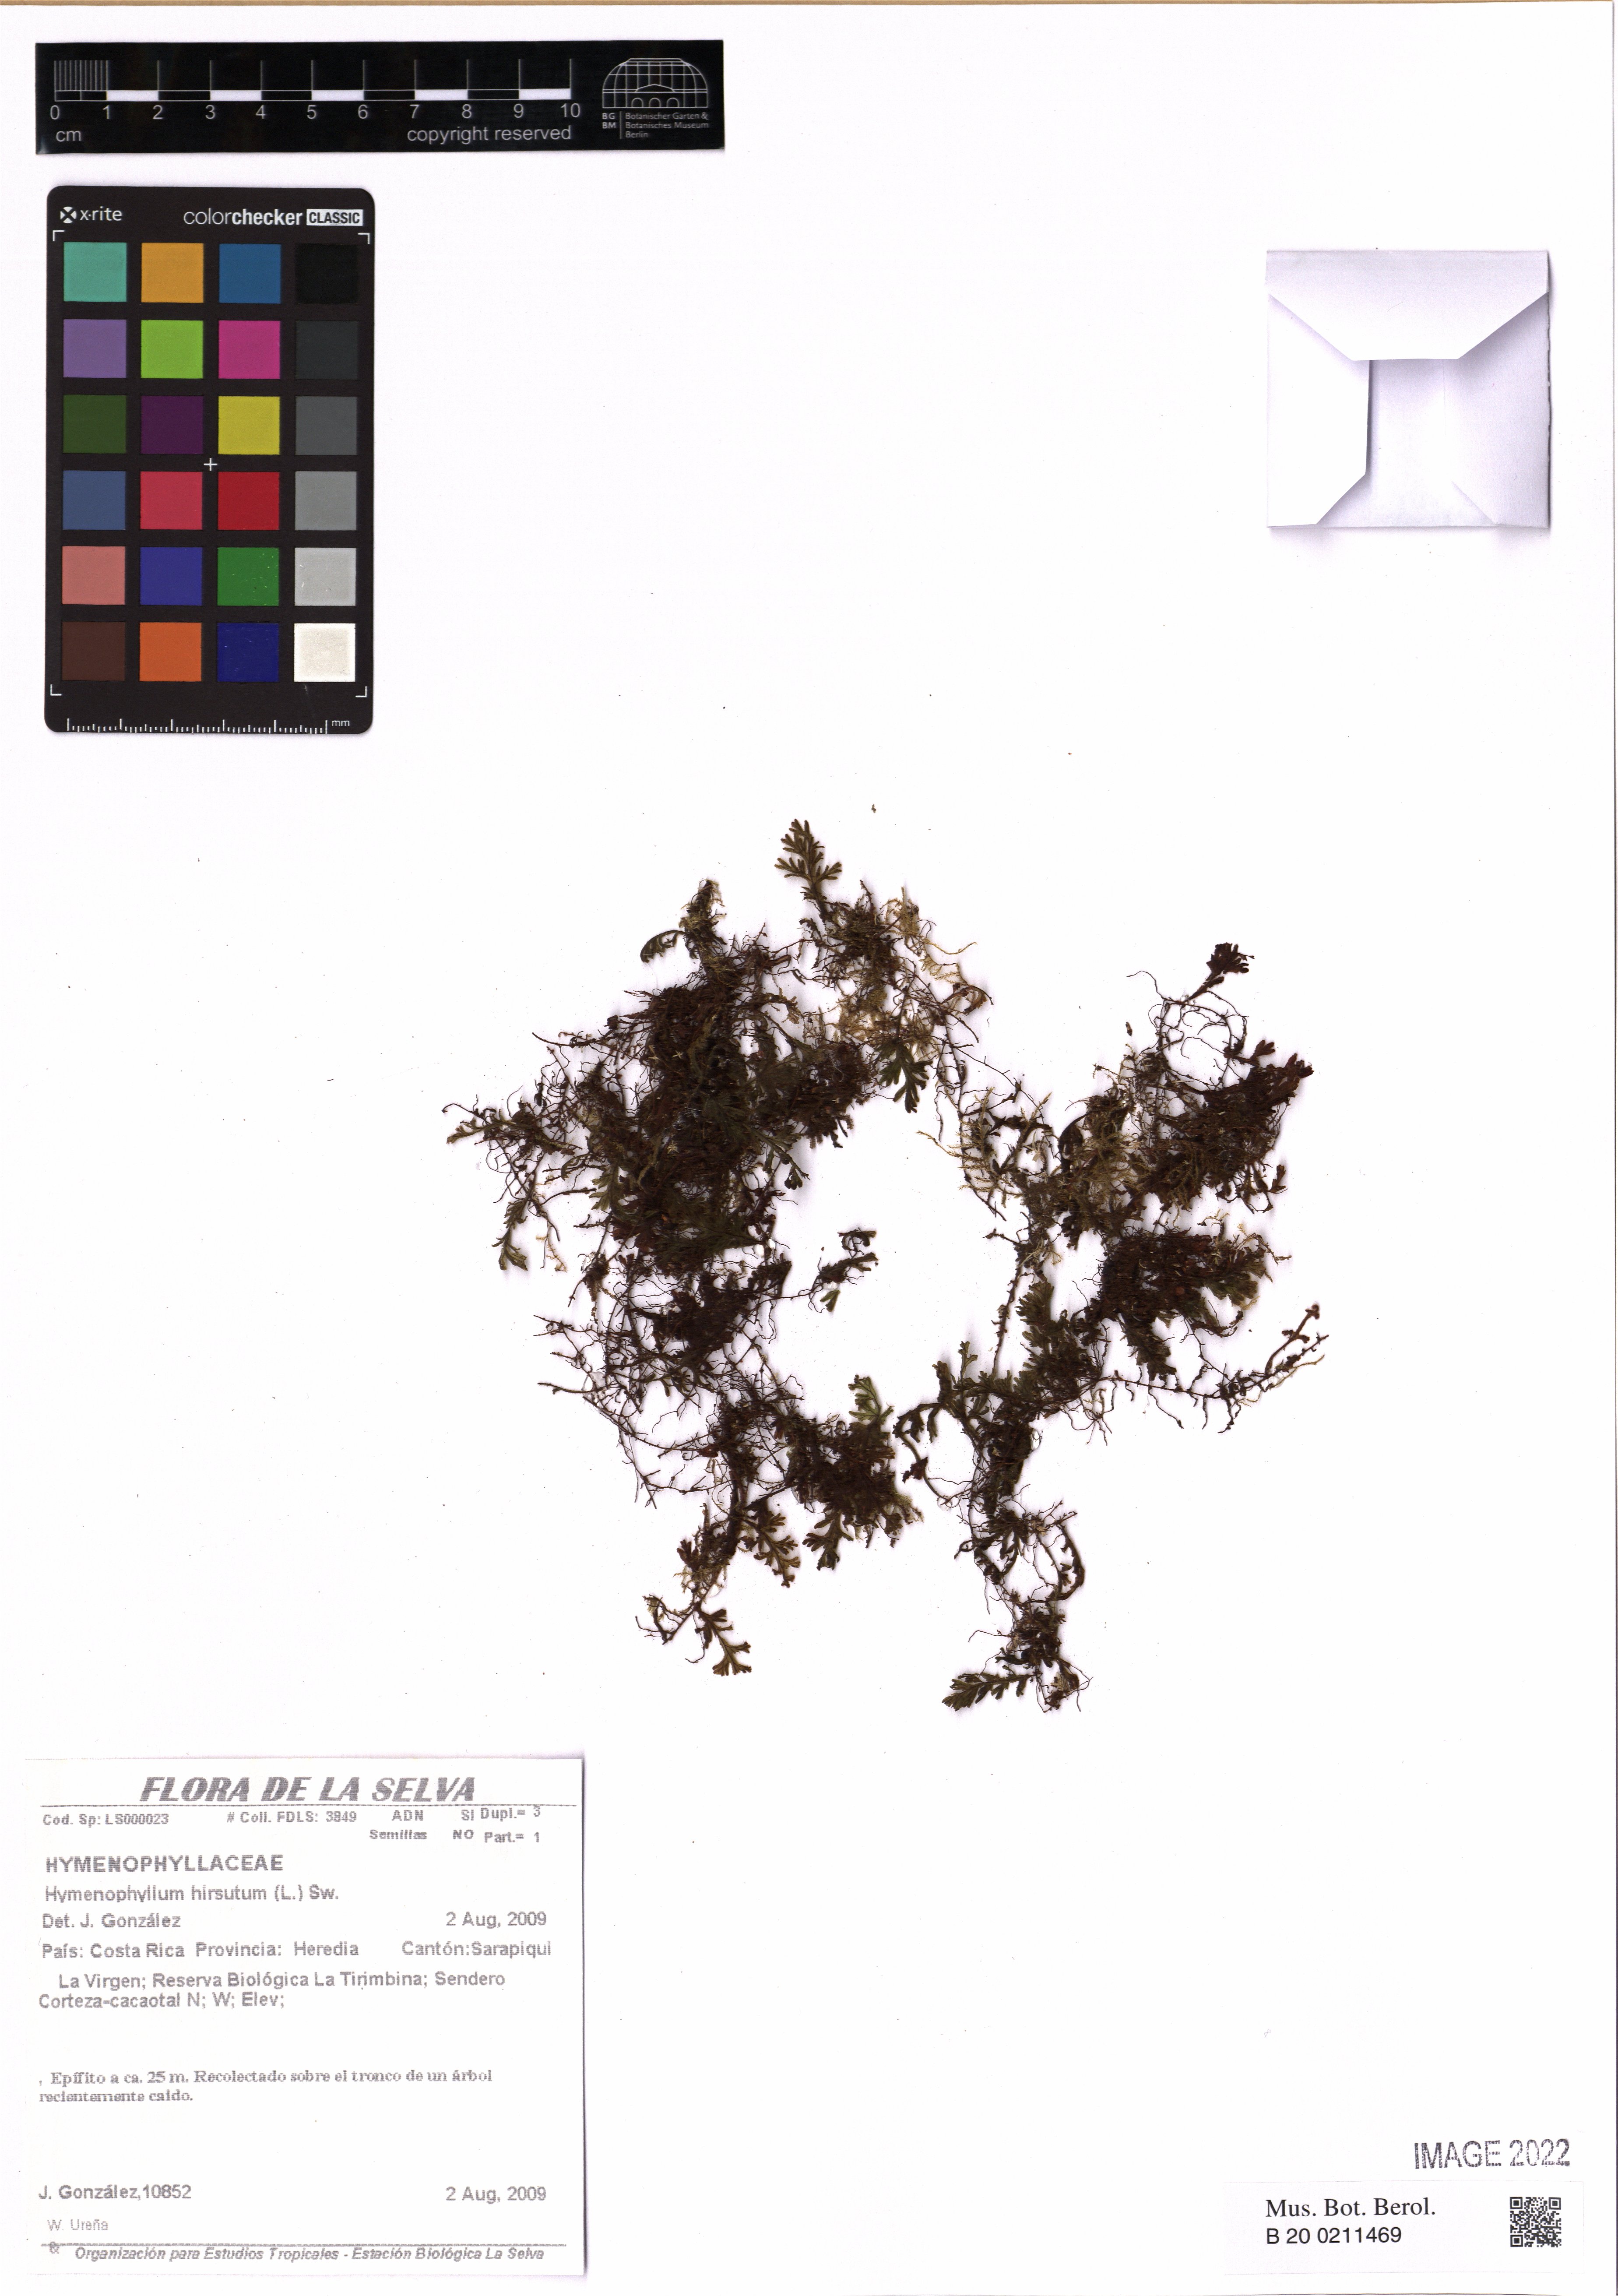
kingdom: Plantae
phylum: Tracheophyta
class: Polypodiopsida
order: Hymenophyllales
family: Hymenophyllaceae
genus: Hymenophyllum
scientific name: Hymenophyllum hirsutum
